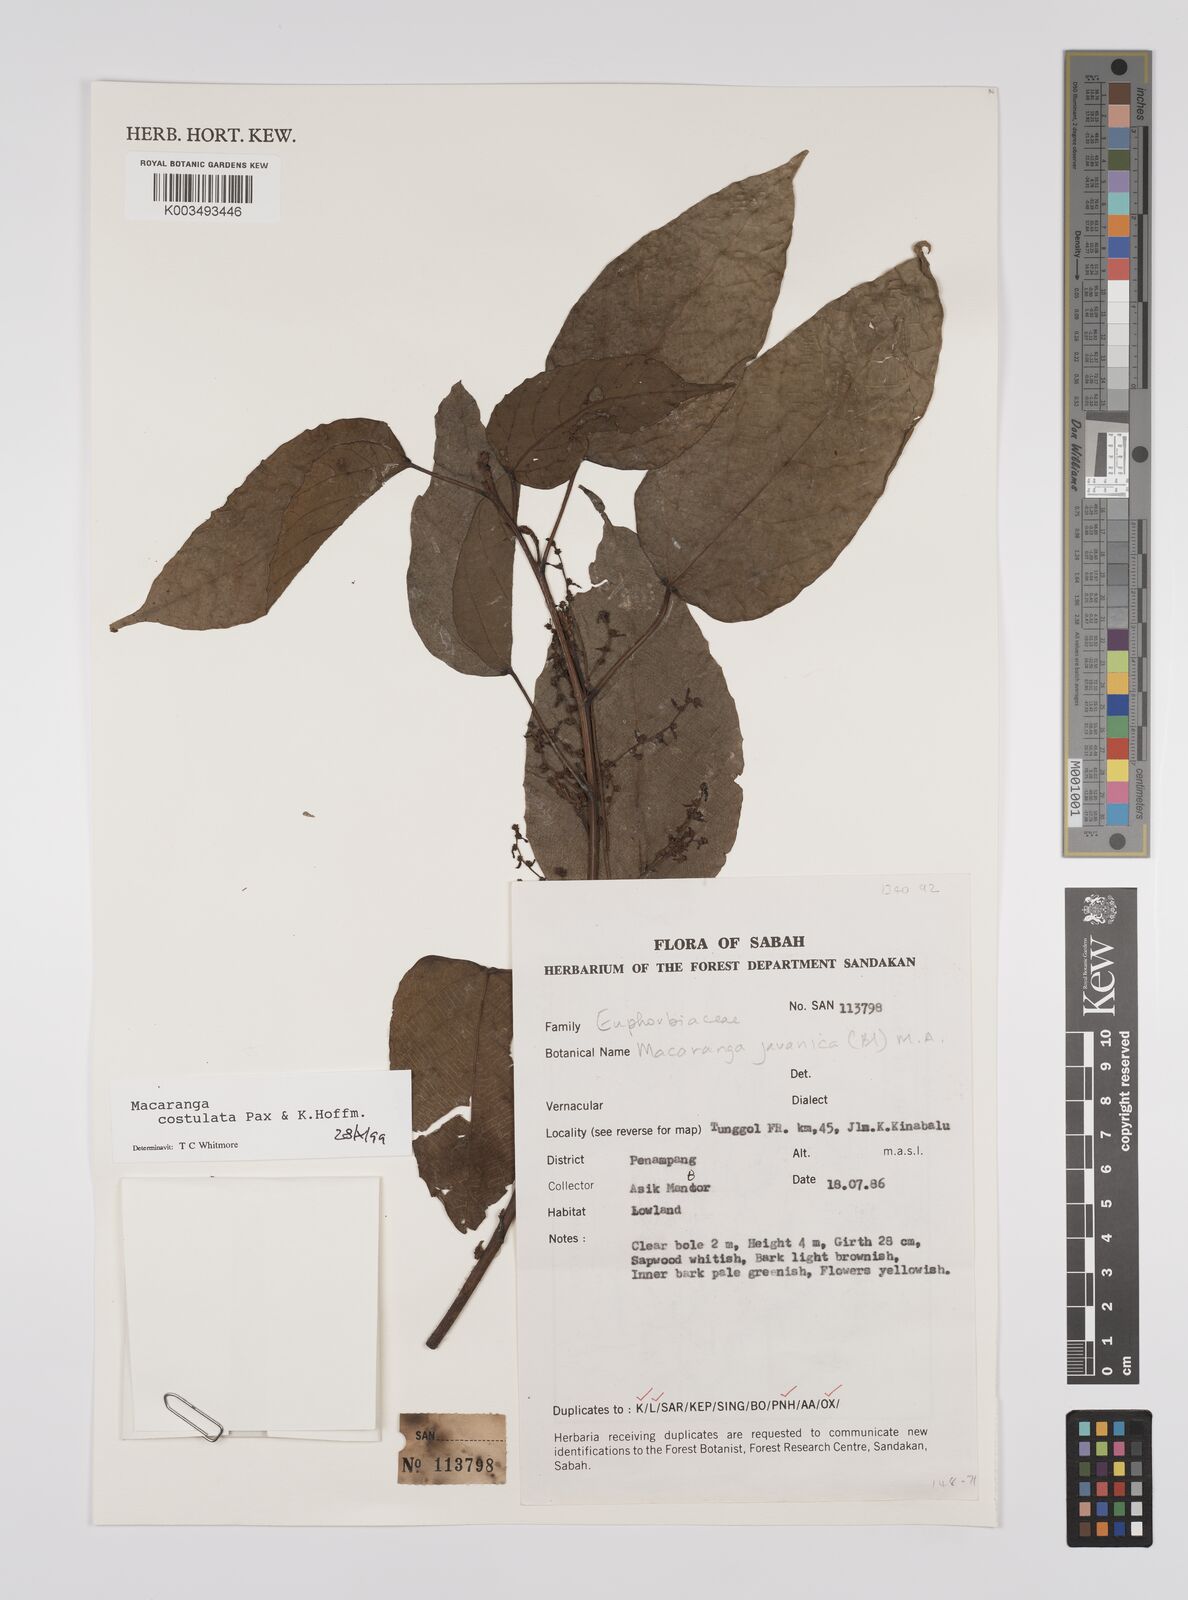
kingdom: Plantae
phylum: Tracheophyta
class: Magnoliopsida
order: Malpighiales
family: Euphorbiaceae
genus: Macaranga
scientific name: Macaranga costulata
